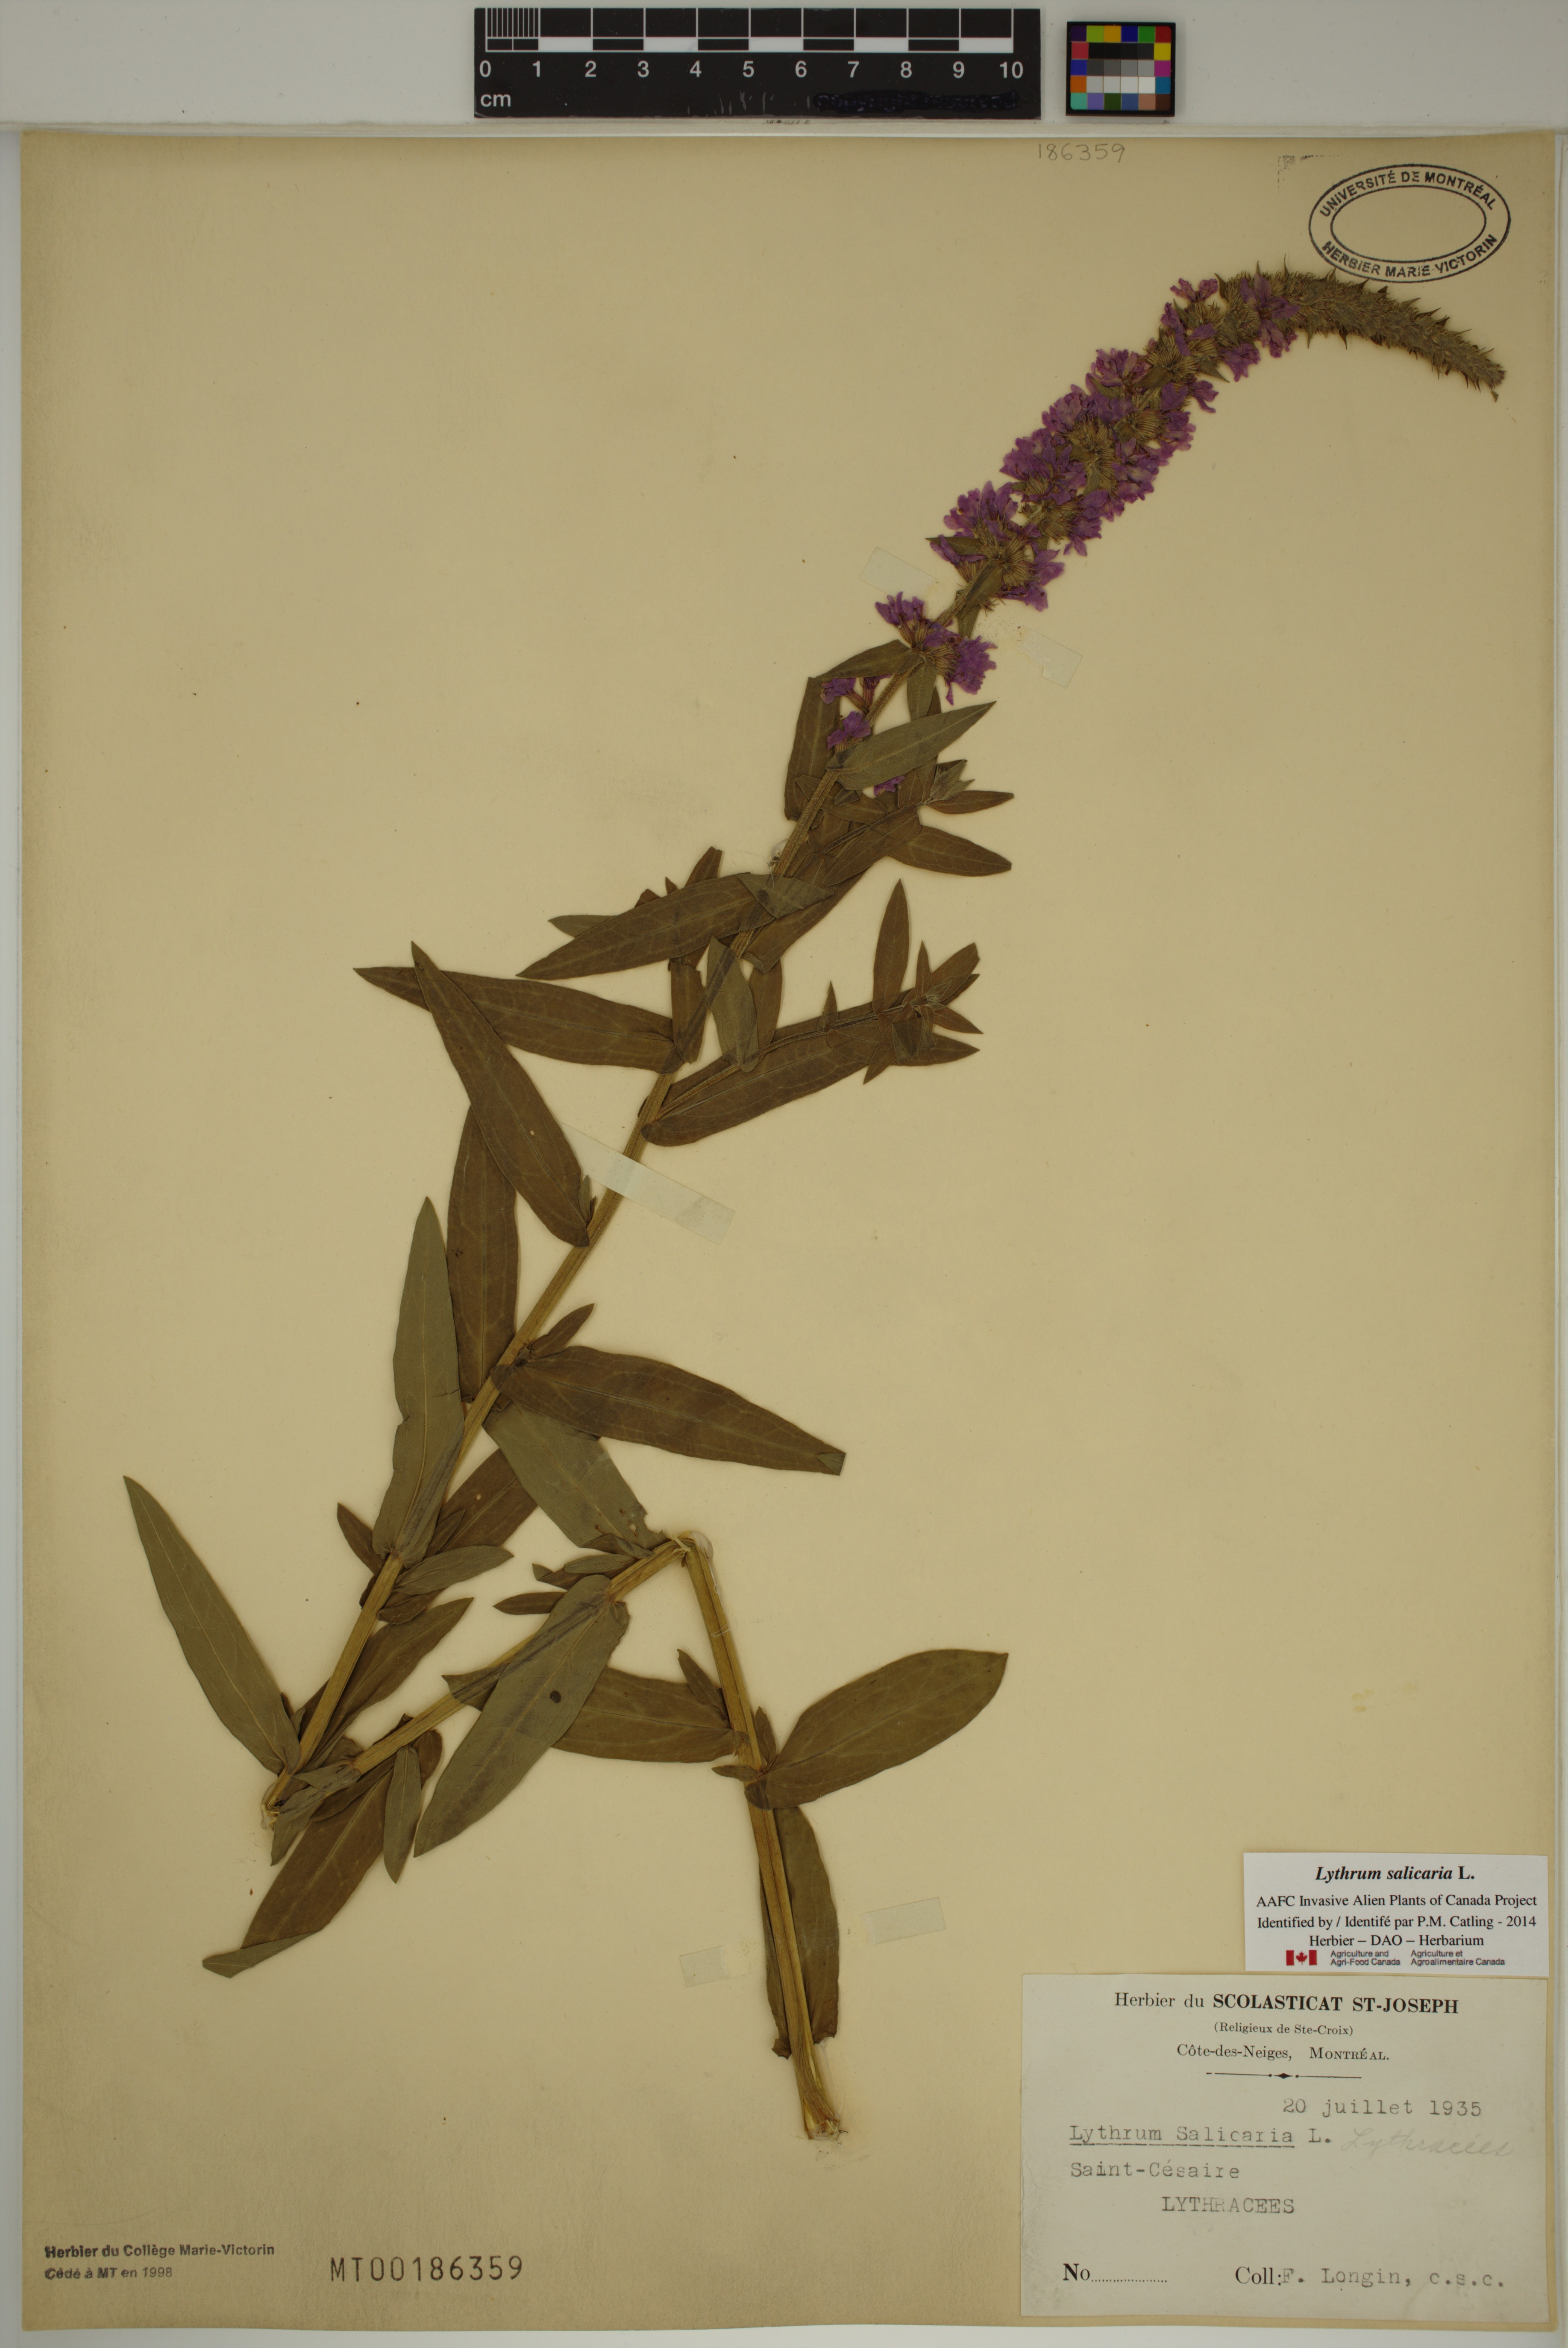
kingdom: Plantae
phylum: Tracheophyta
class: Magnoliopsida
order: Myrtales
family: Lythraceae
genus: Lythrum
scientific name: Lythrum salicaria
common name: Purple loosestrife
